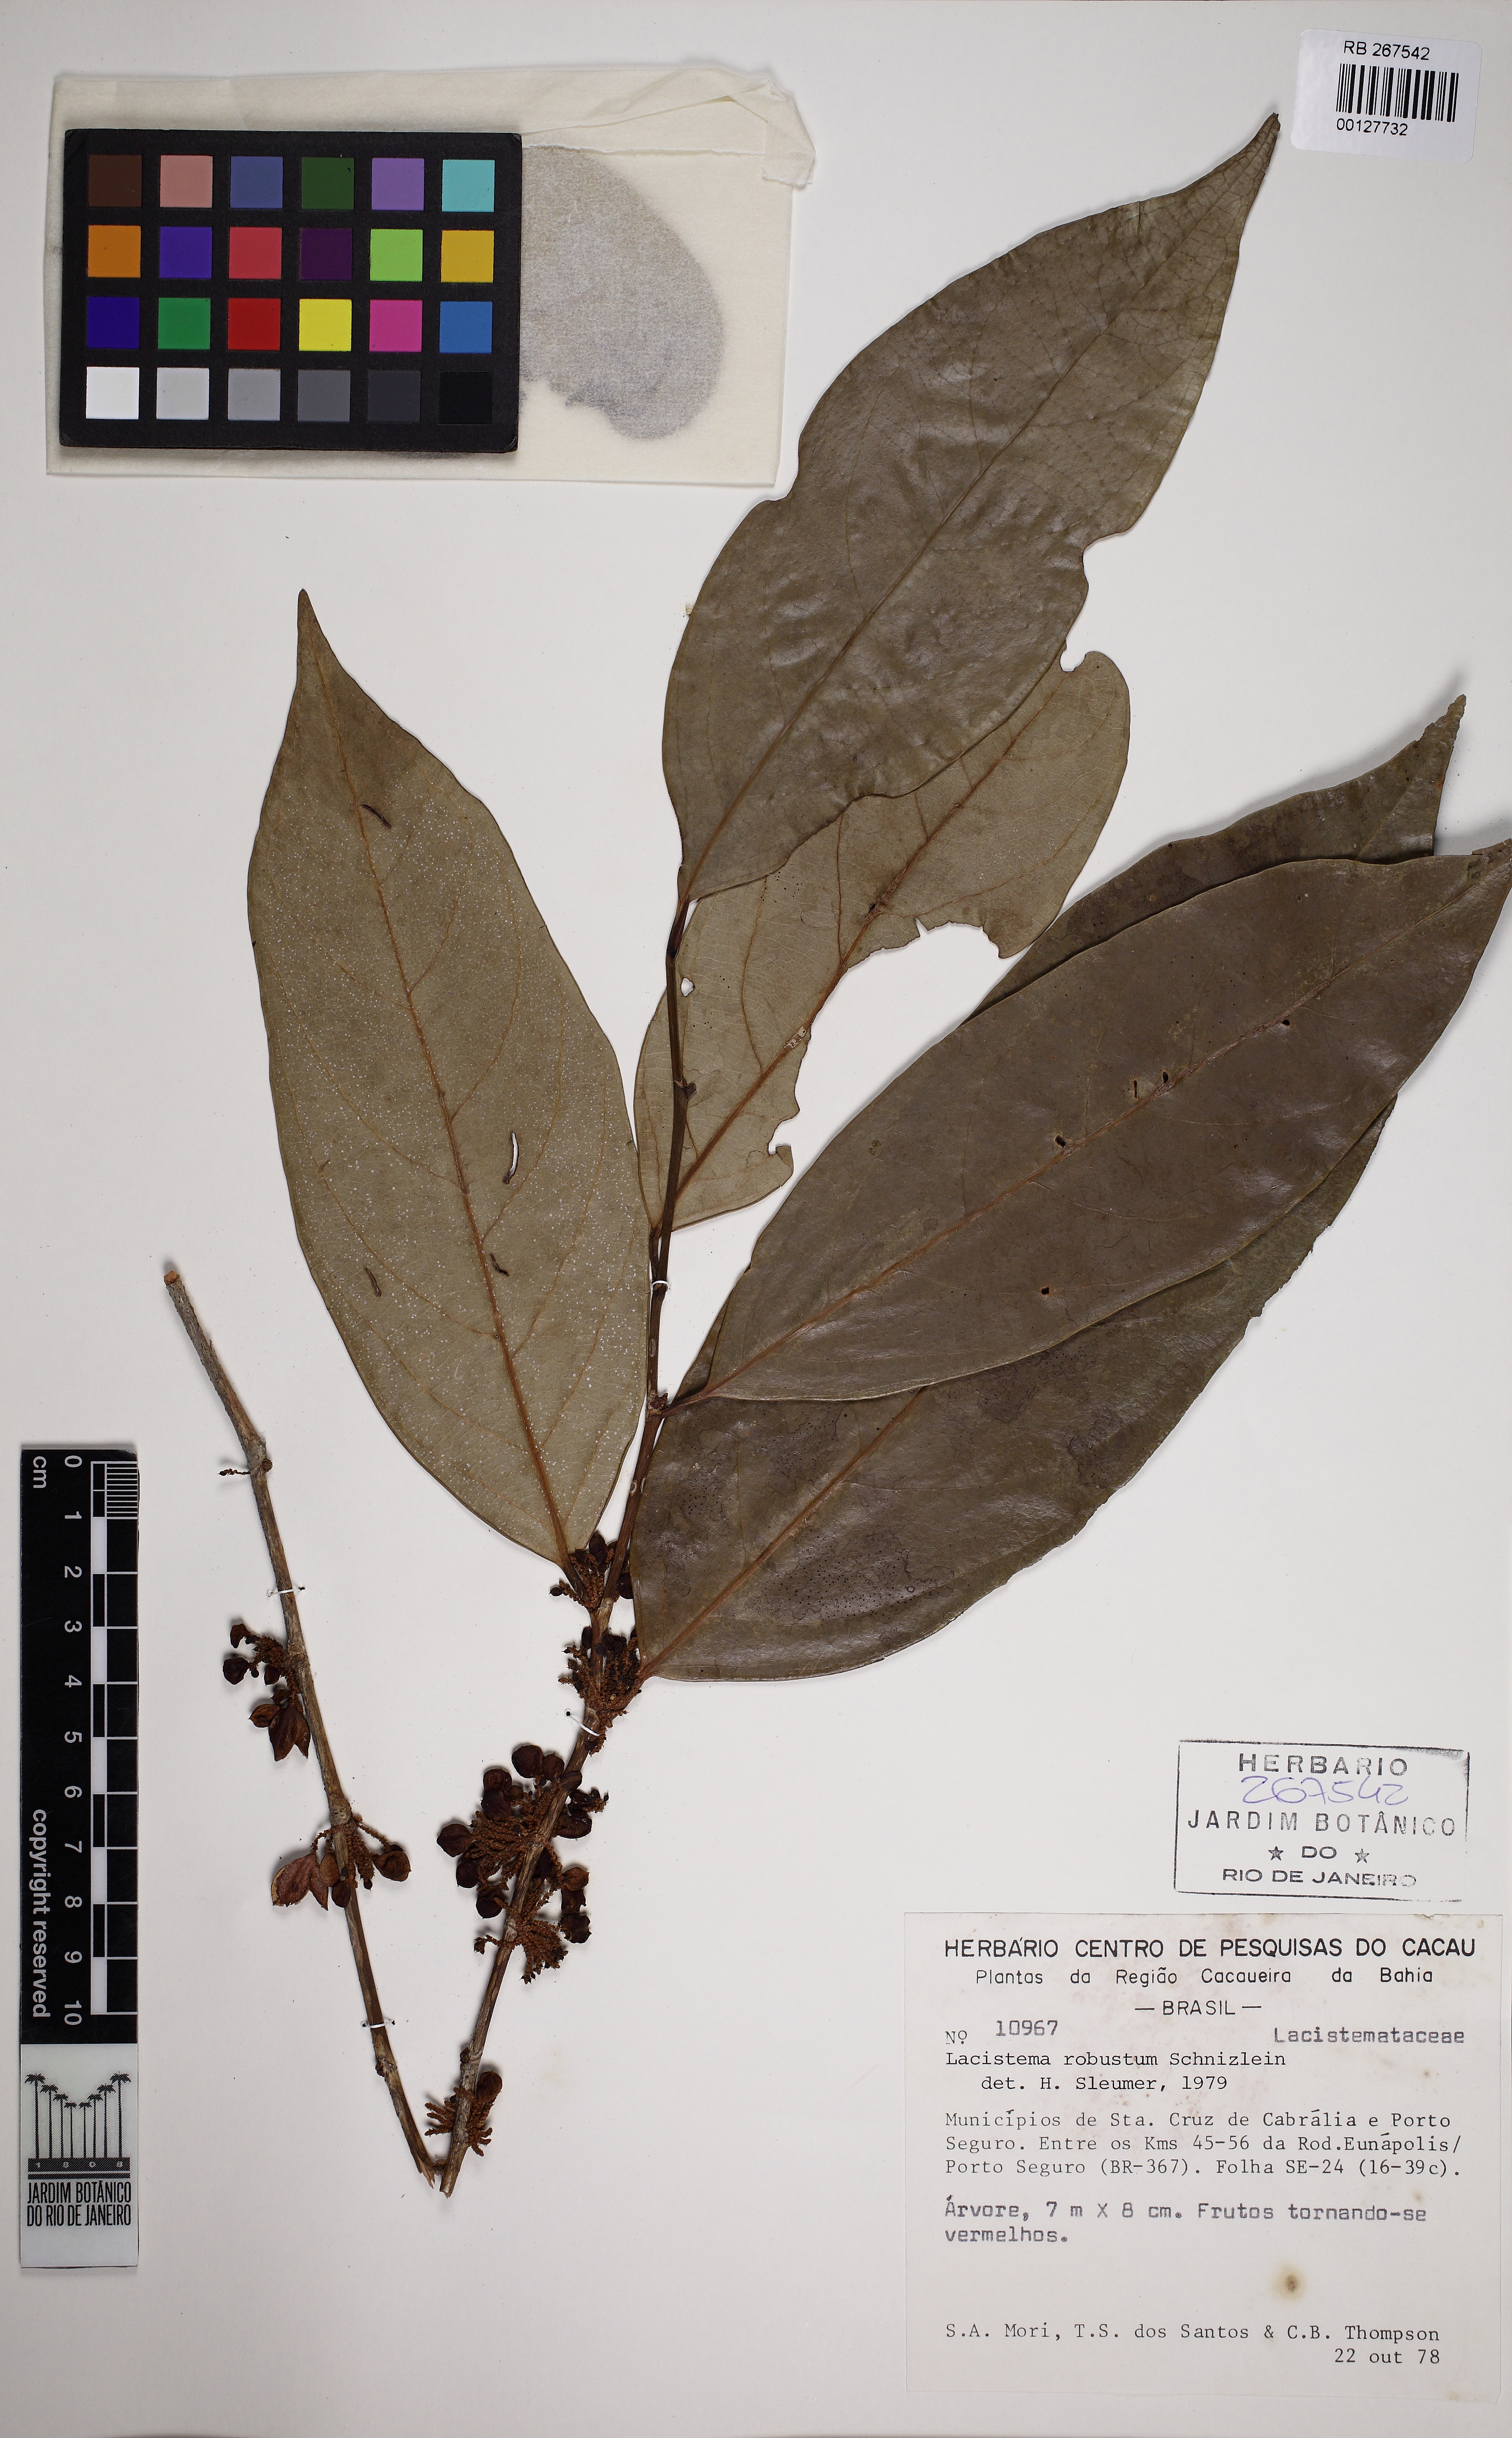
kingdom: Plantae
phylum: Tracheophyta
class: Magnoliopsida
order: Malpighiales
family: Lacistemataceae
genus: Lacistema
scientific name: Lacistema robustum
